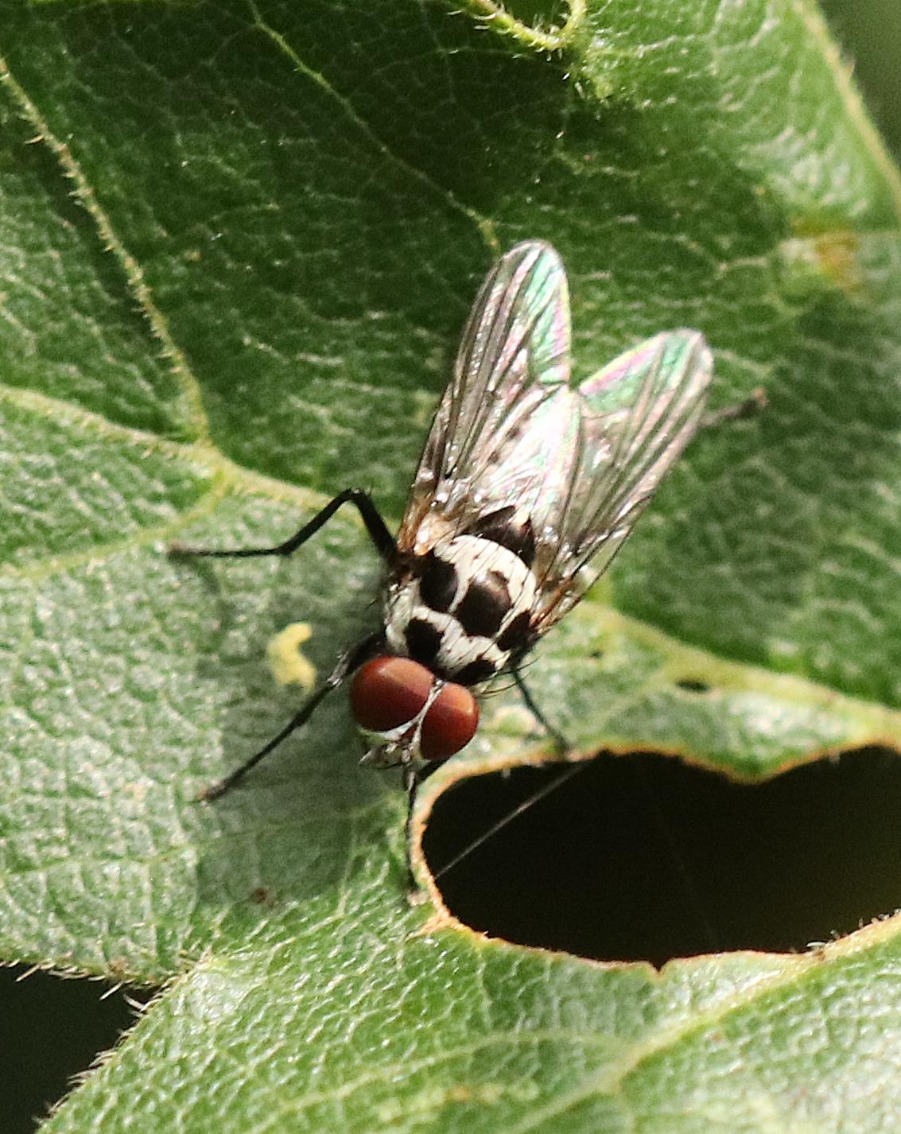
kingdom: Animalia
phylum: Arthropoda
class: Insecta
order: Diptera
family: Anthomyiidae
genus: Anthomyia
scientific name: Anthomyia procellaris
